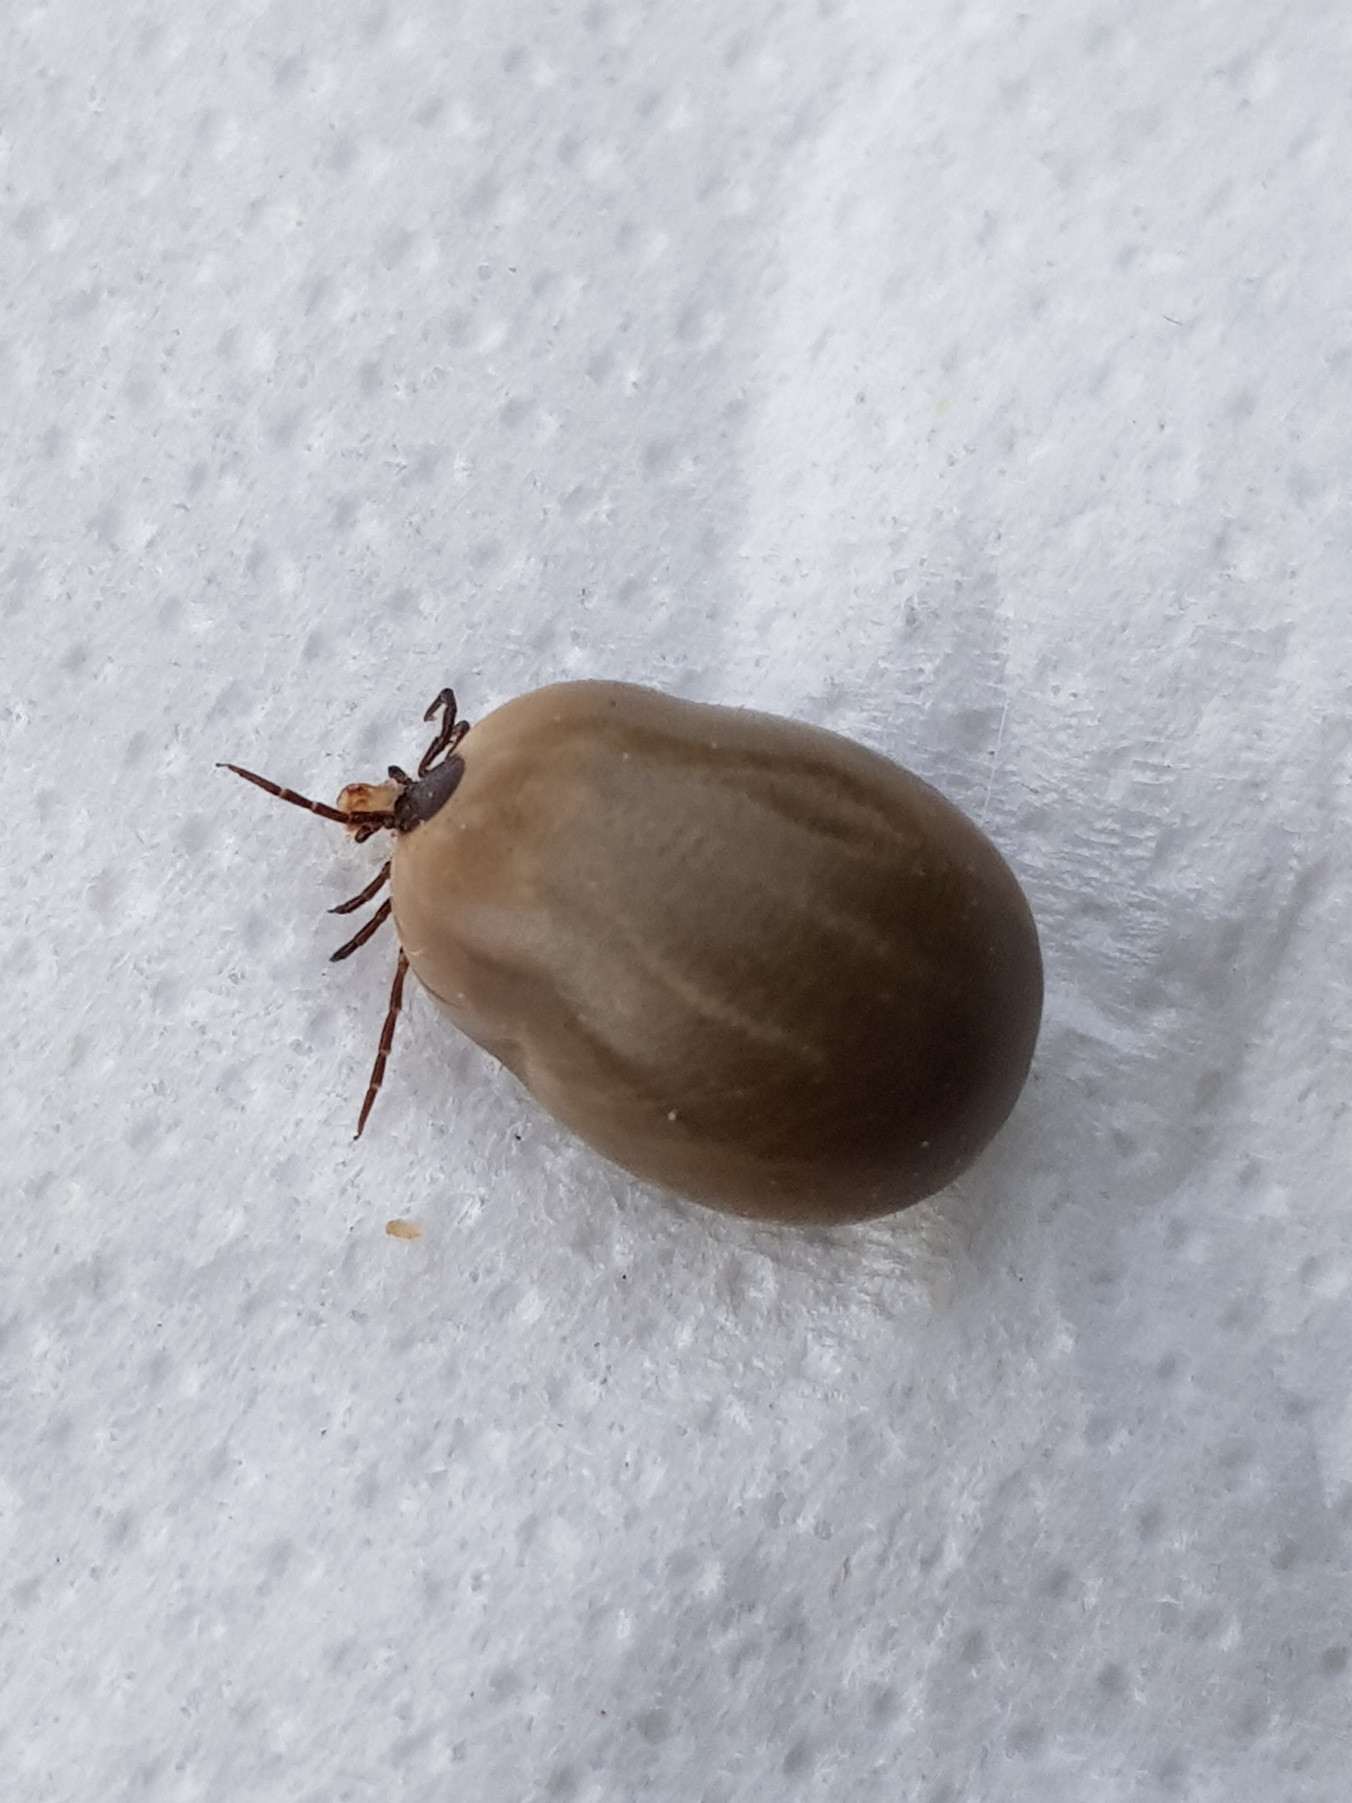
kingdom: Animalia
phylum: Arthropoda
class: Arachnida
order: Ixodida
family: Ixodidae
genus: Ixodes
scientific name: Ixodes ricinus
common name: Skovflåt
